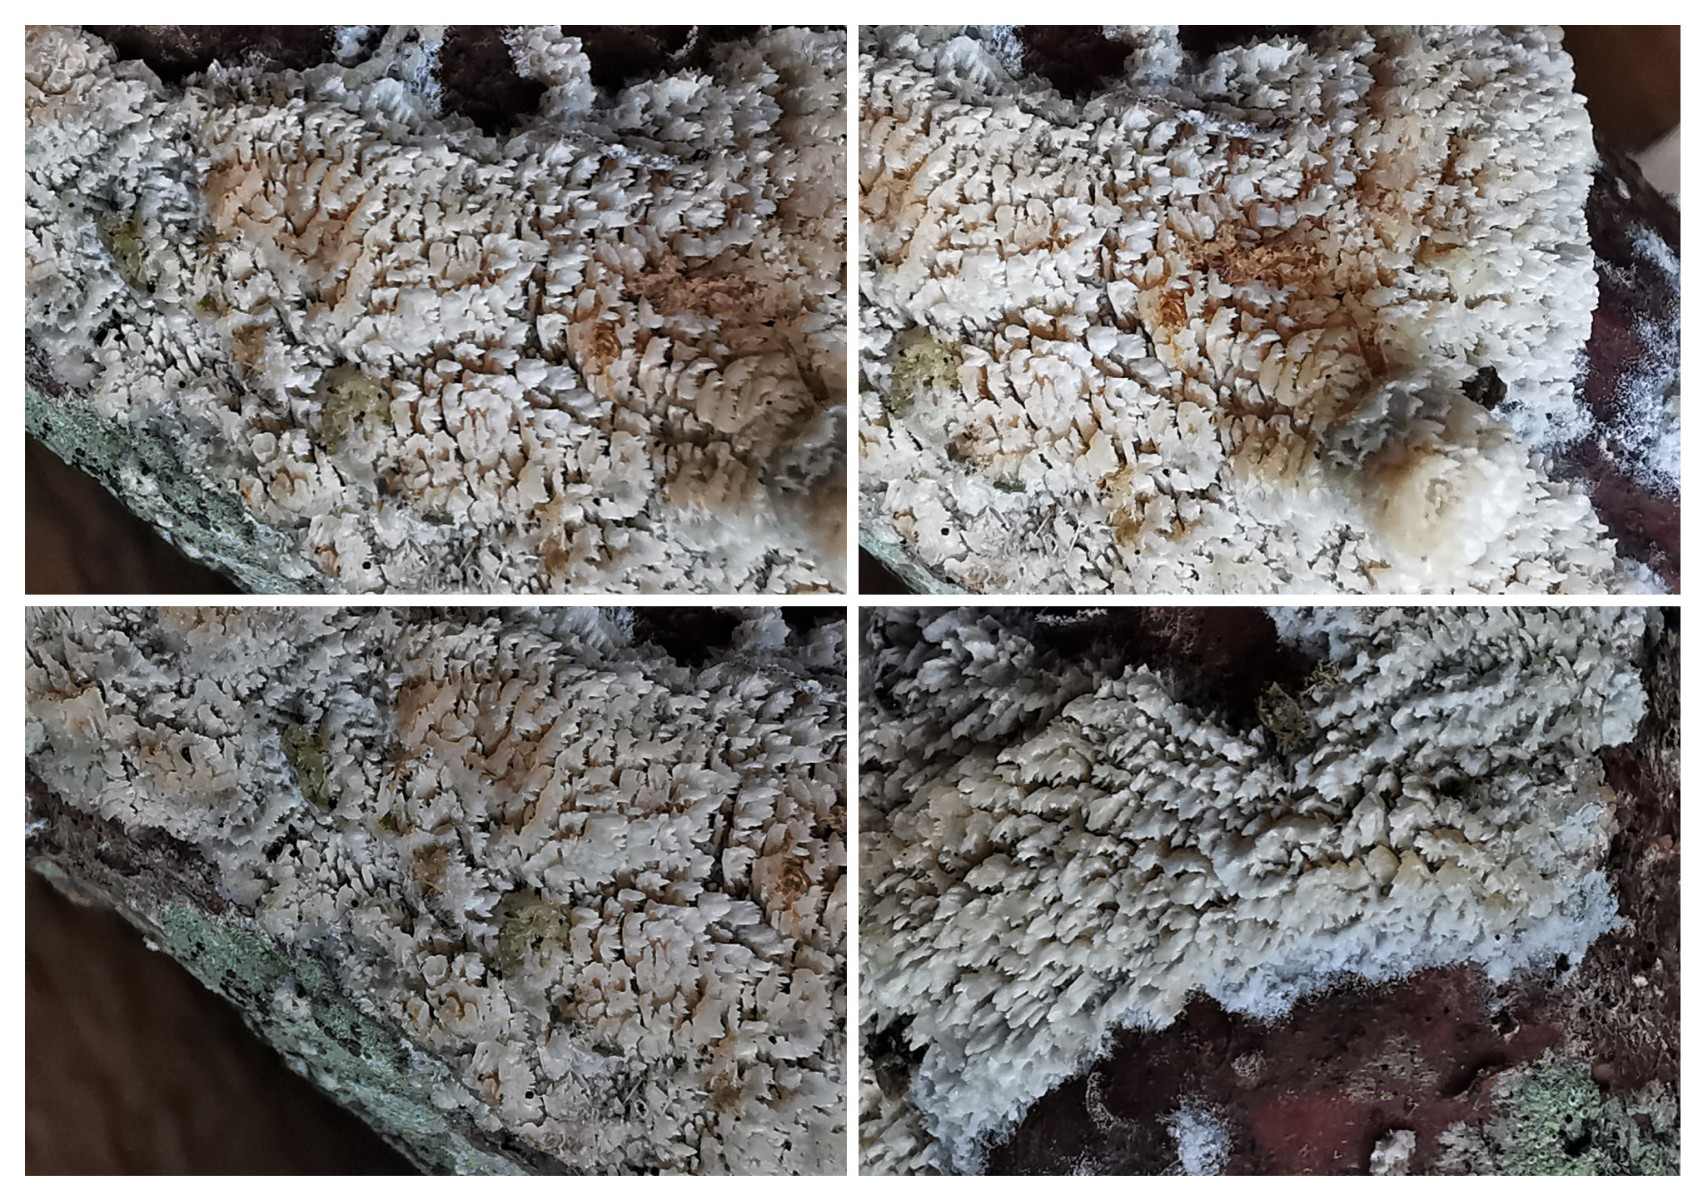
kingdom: Fungi
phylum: Basidiomycota
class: Agaricomycetes
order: Corticiales
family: Corticiaceae
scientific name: Corticiaceae
